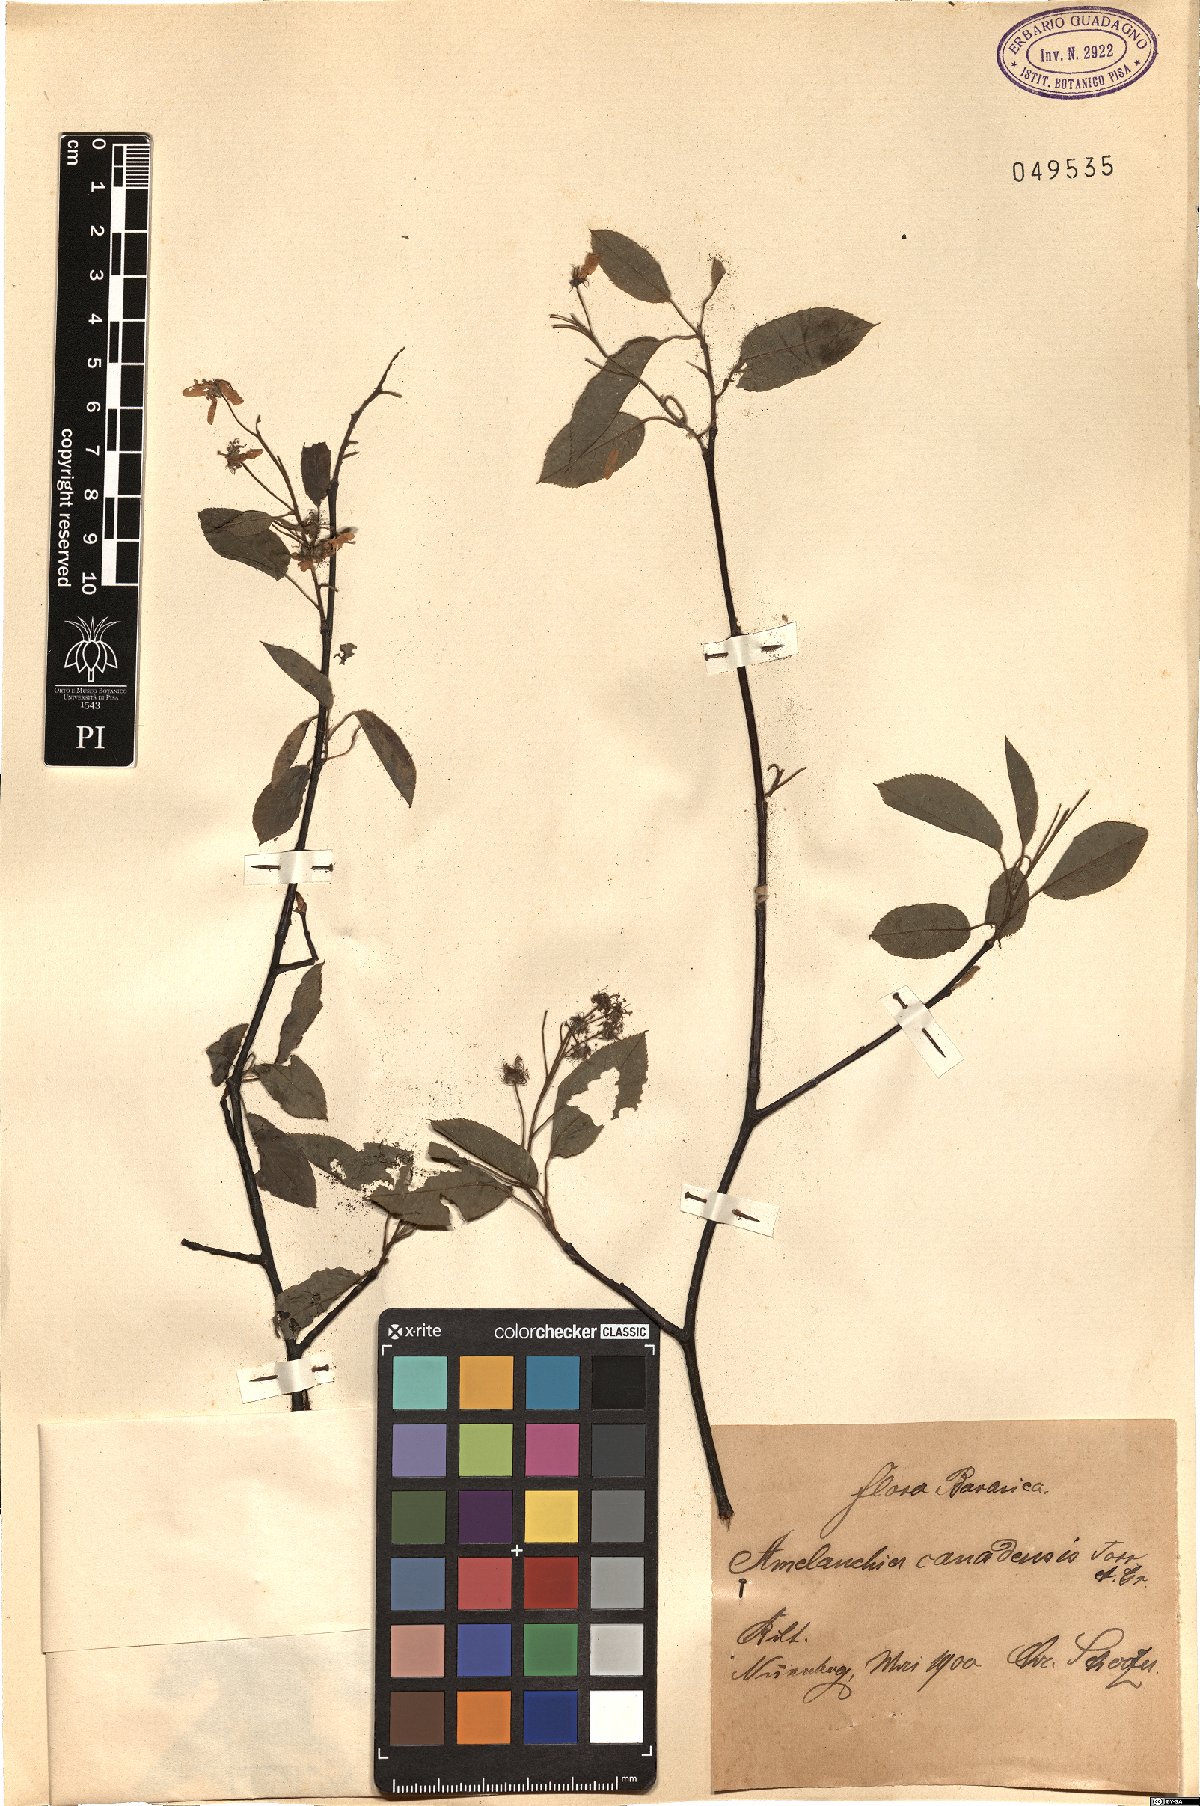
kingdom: Plantae
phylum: Tracheophyta
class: Magnoliopsida
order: Rosales
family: Rosaceae
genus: Amelanchier
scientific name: Amelanchier canadensis
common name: Thicket serviceberry
